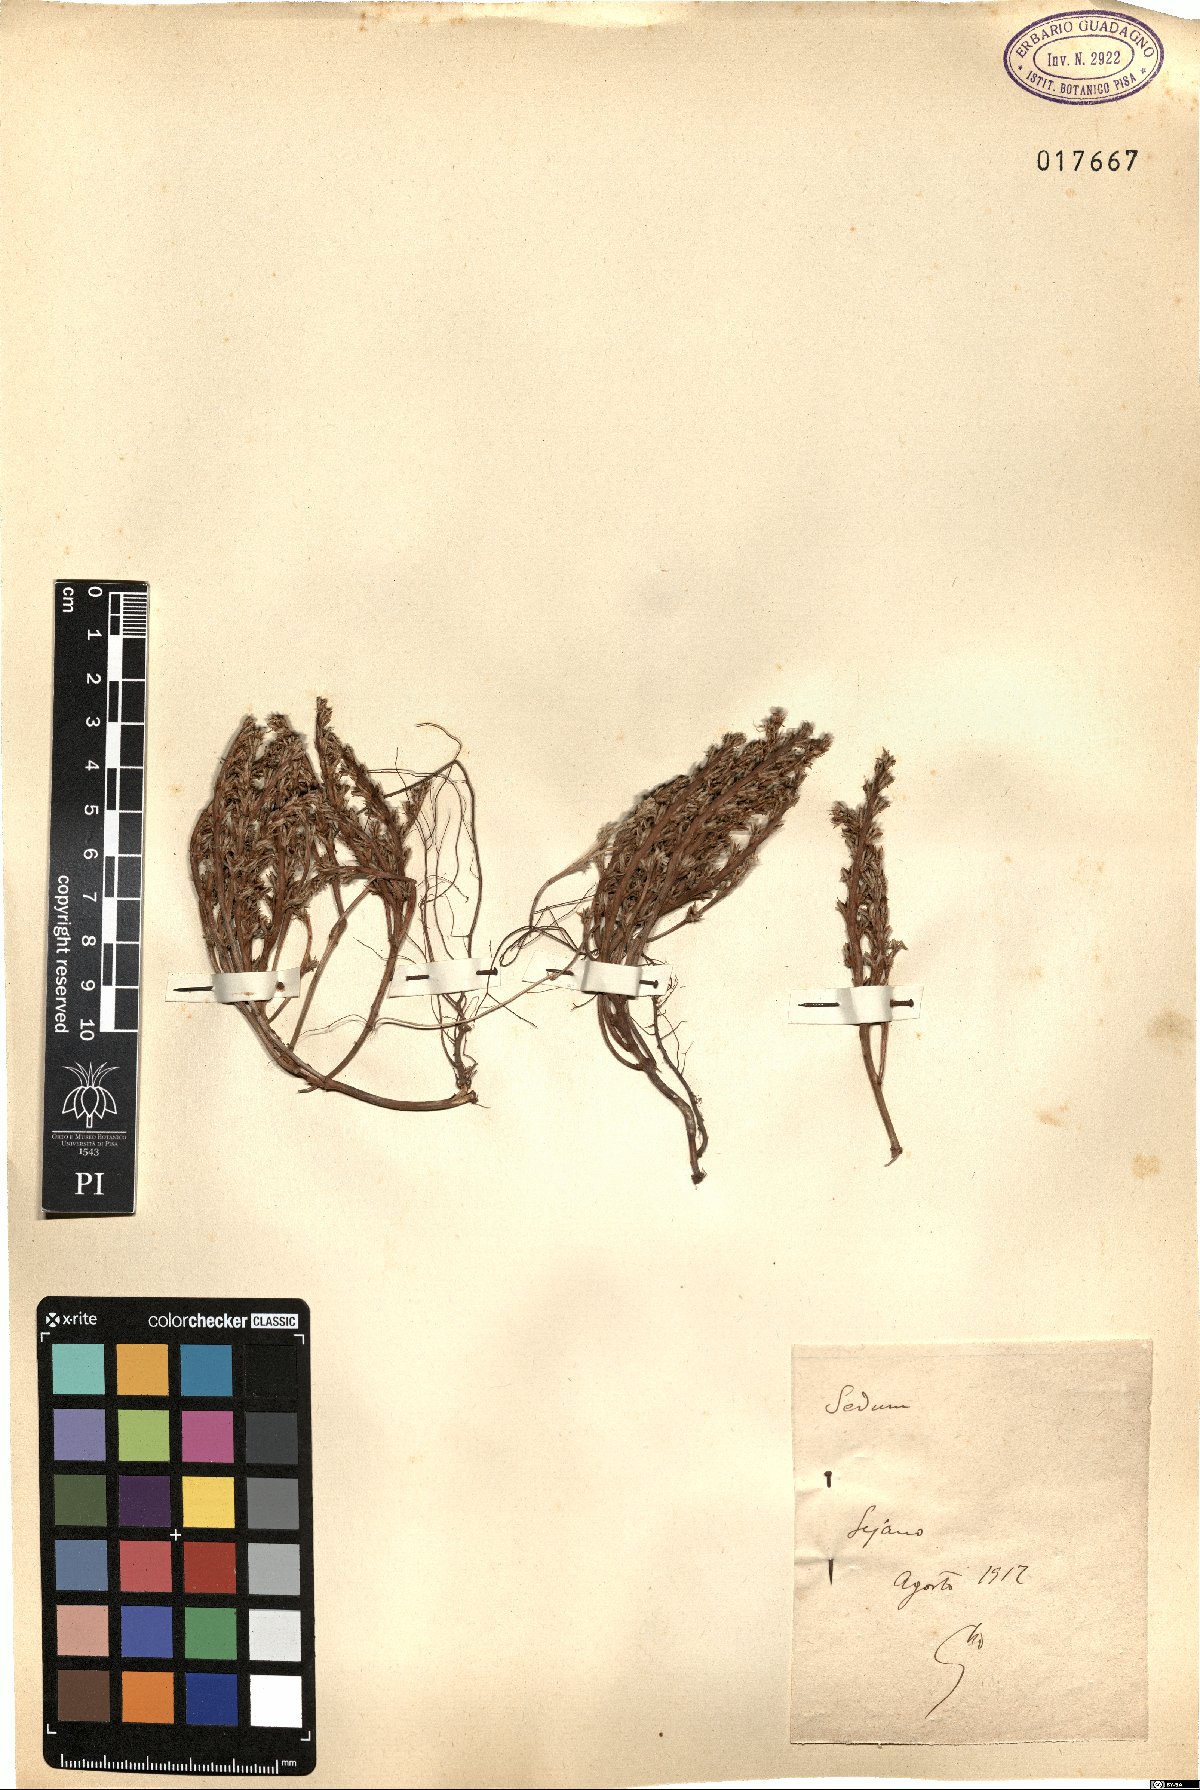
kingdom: Plantae
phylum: Tracheophyta
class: Magnoliopsida
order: Saxifragales
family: Crassulaceae
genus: Sedum
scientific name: Sedum
